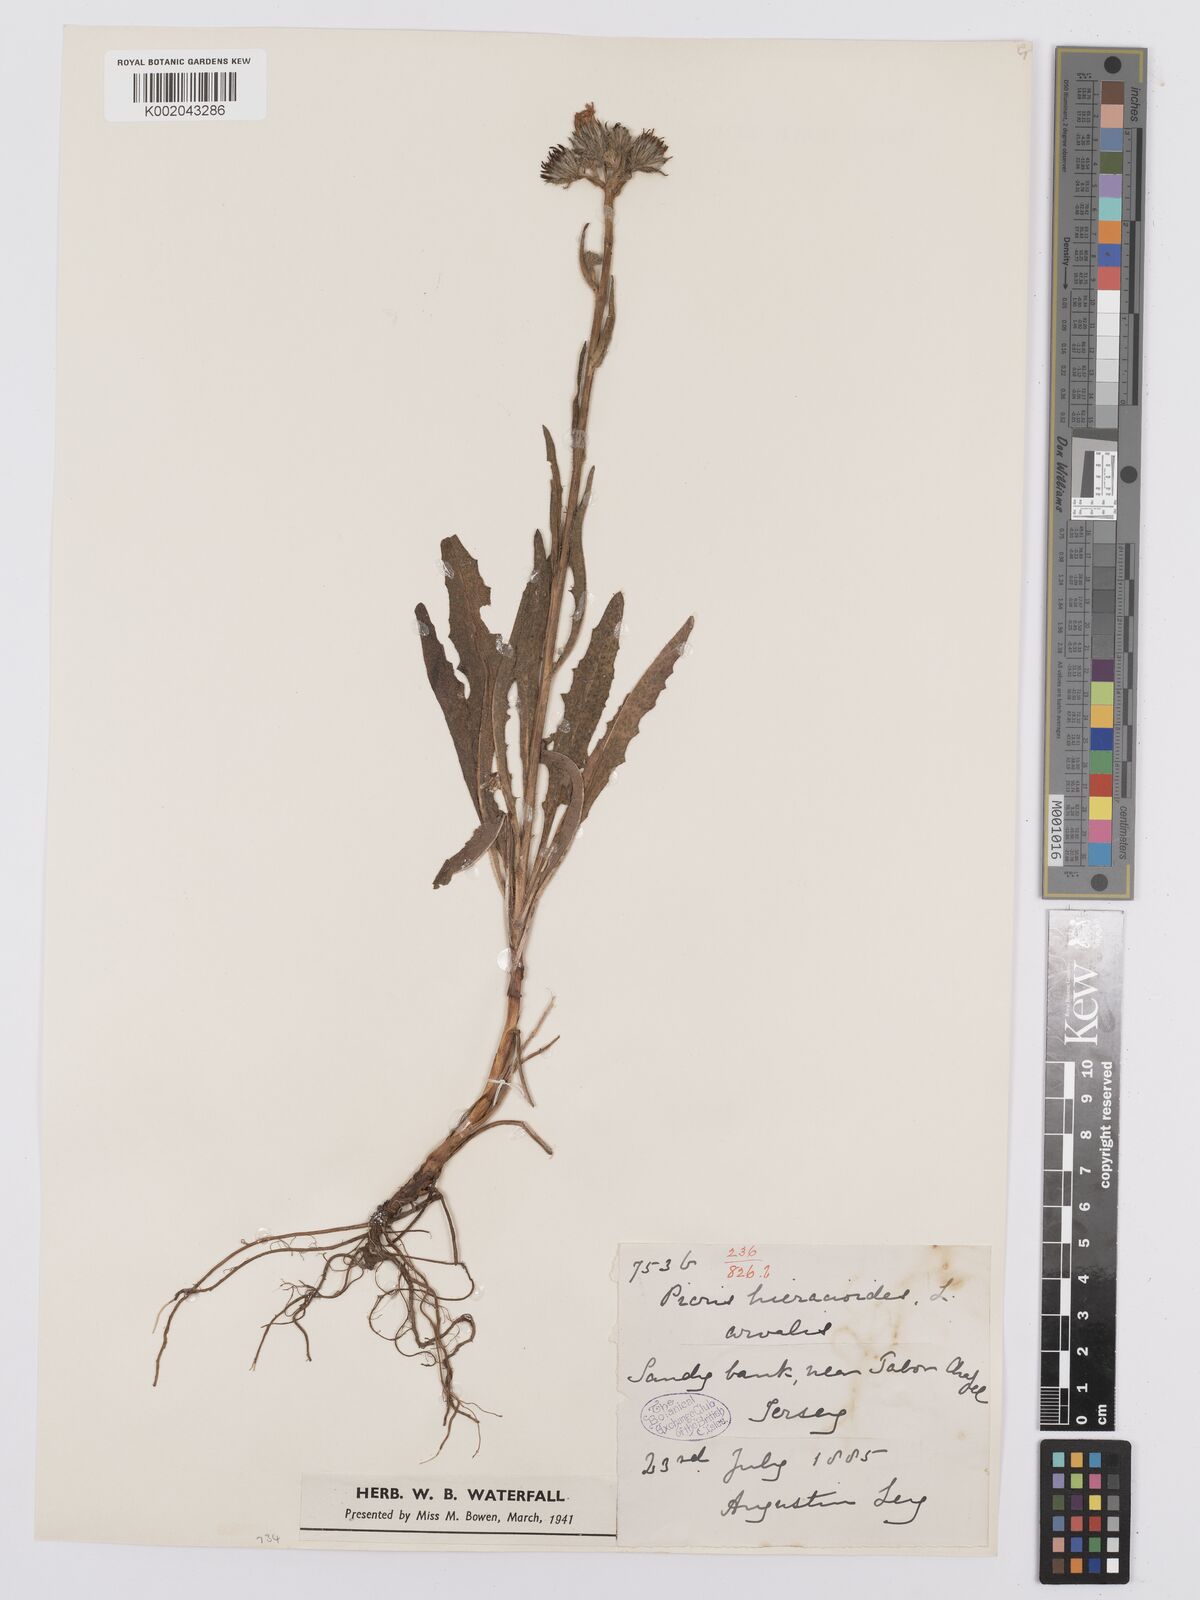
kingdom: Plantae
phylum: Tracheophyta
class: Magnoliopsida
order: Asterales
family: Asteraceae
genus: Picris
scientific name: Picris hieracioides
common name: Hawkweed oxtongue
